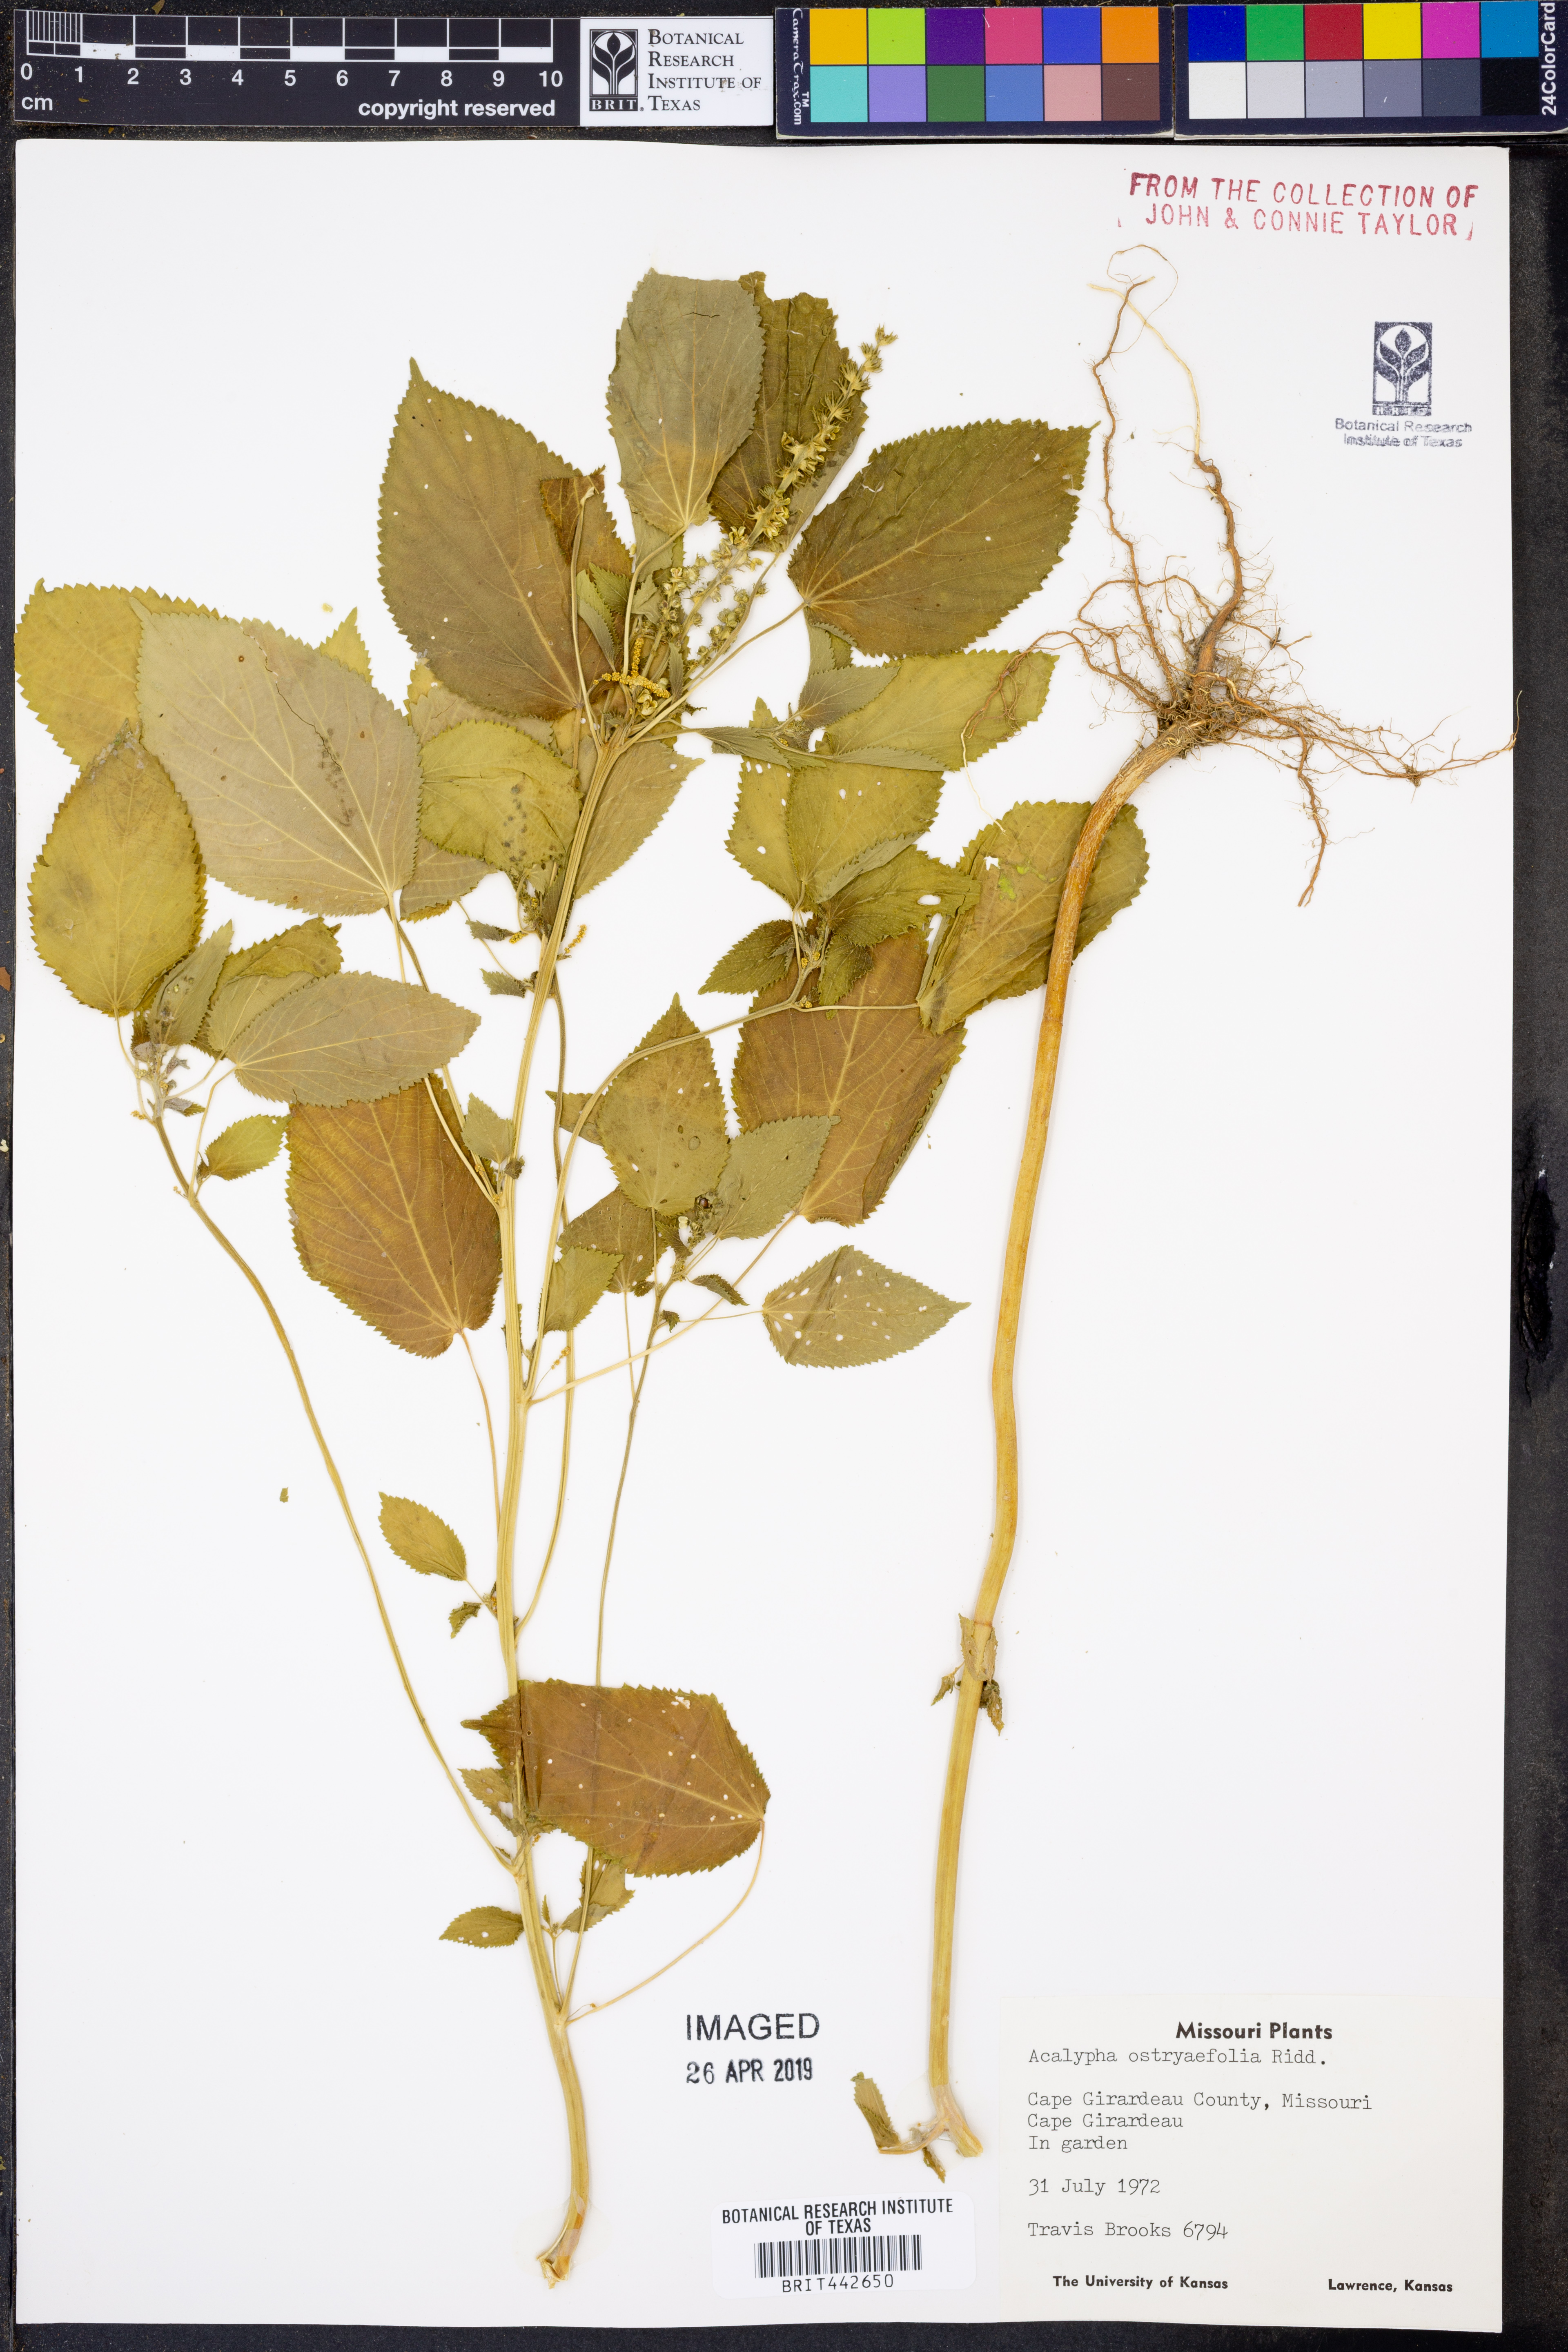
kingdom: Plantae
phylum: Tracheophyta
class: Magnoliopsida
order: Malpighiales
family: Euphorbiaceae
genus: Acalypha
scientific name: Acalypha ostryifolia
